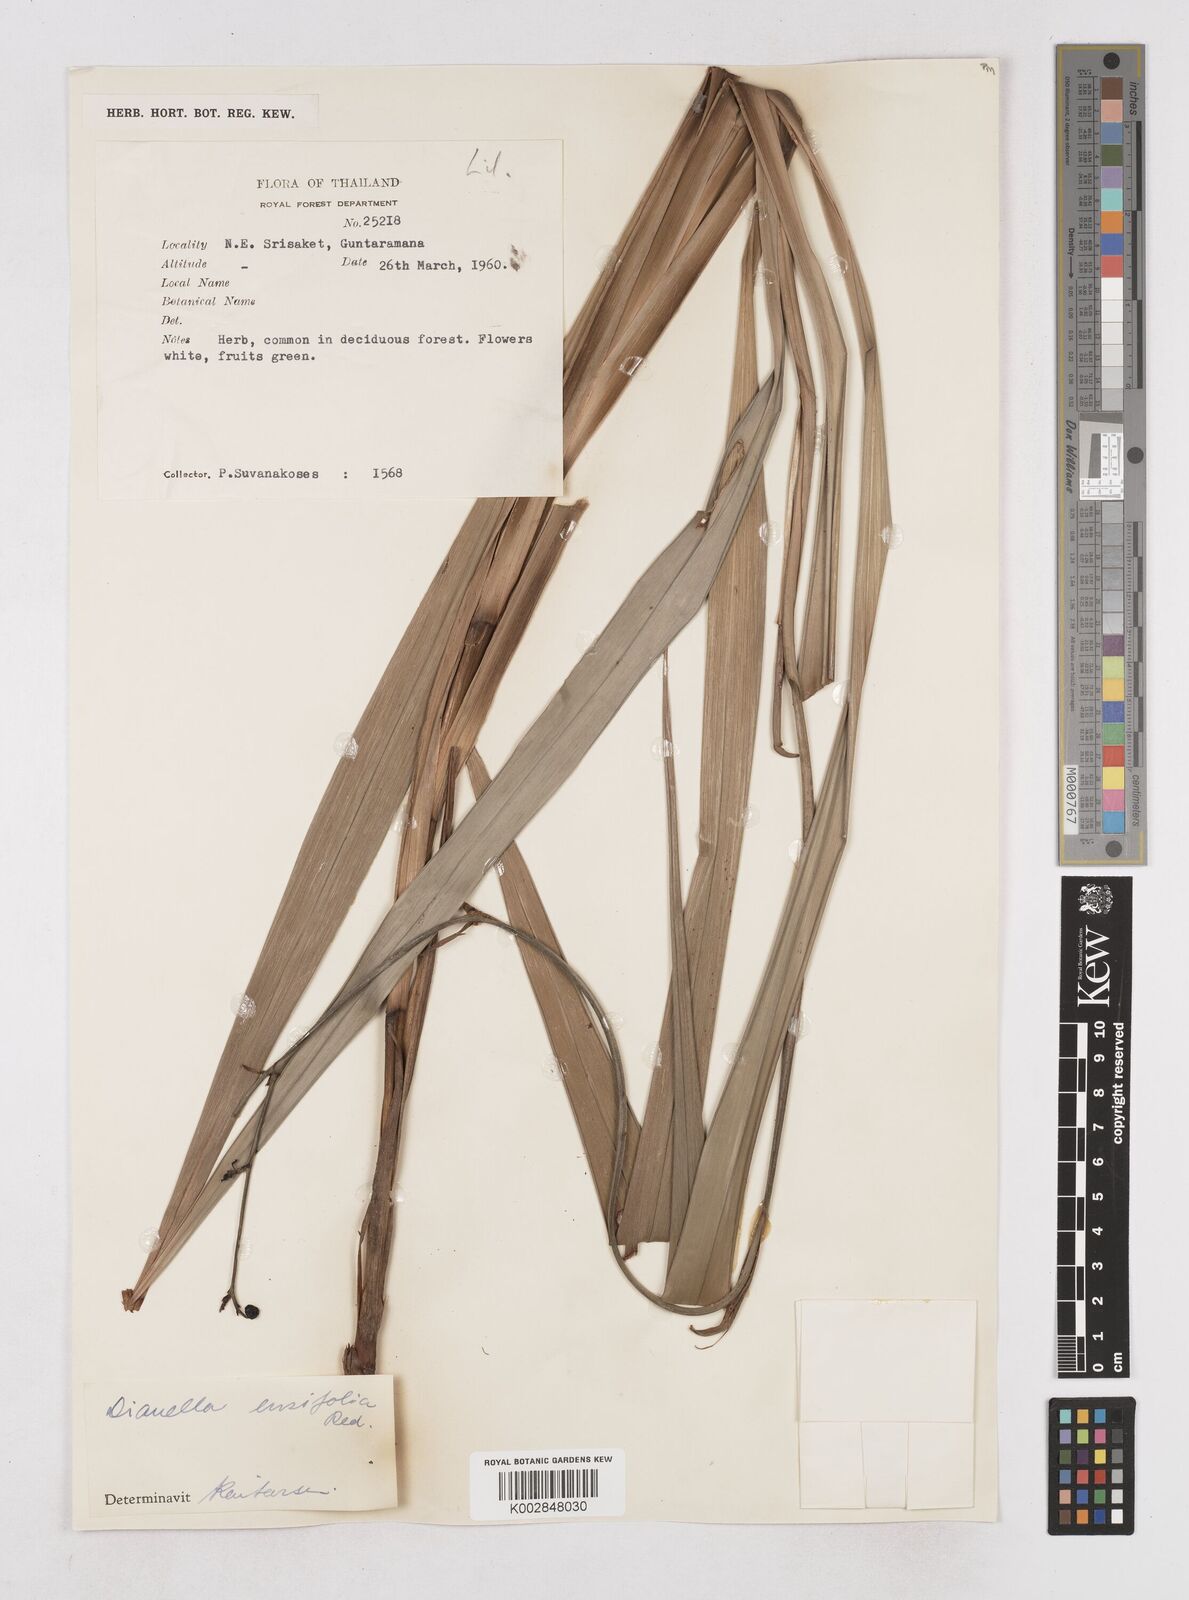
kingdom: Plantae
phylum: Tracheophyta
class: Liliopsida
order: Asparagales
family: Asphodelaceae
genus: Dianella
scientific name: Dianella ensifolia
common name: New zealand lilyplant
